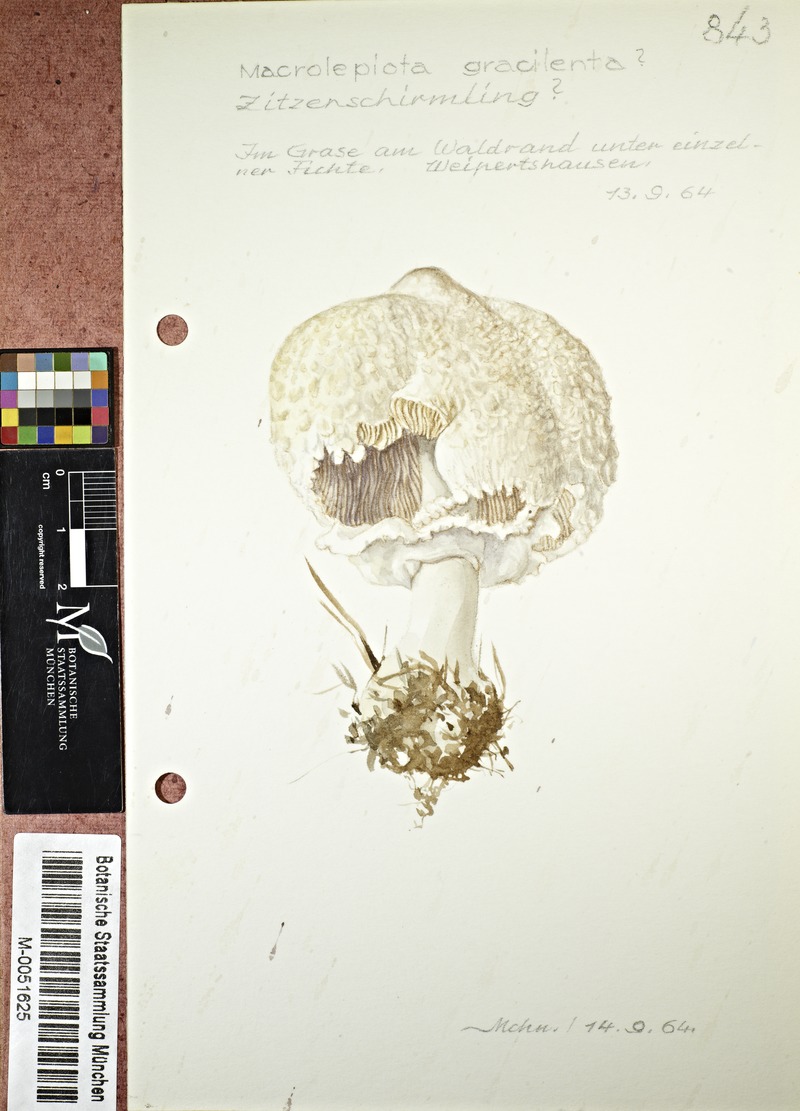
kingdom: Fungi
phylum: Basidiomycota
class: Agaricomycetes
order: Agaricales
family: Agaricaceae
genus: Macrolepiota
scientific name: Macrolepiota mastoidea
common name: Slender parasol
